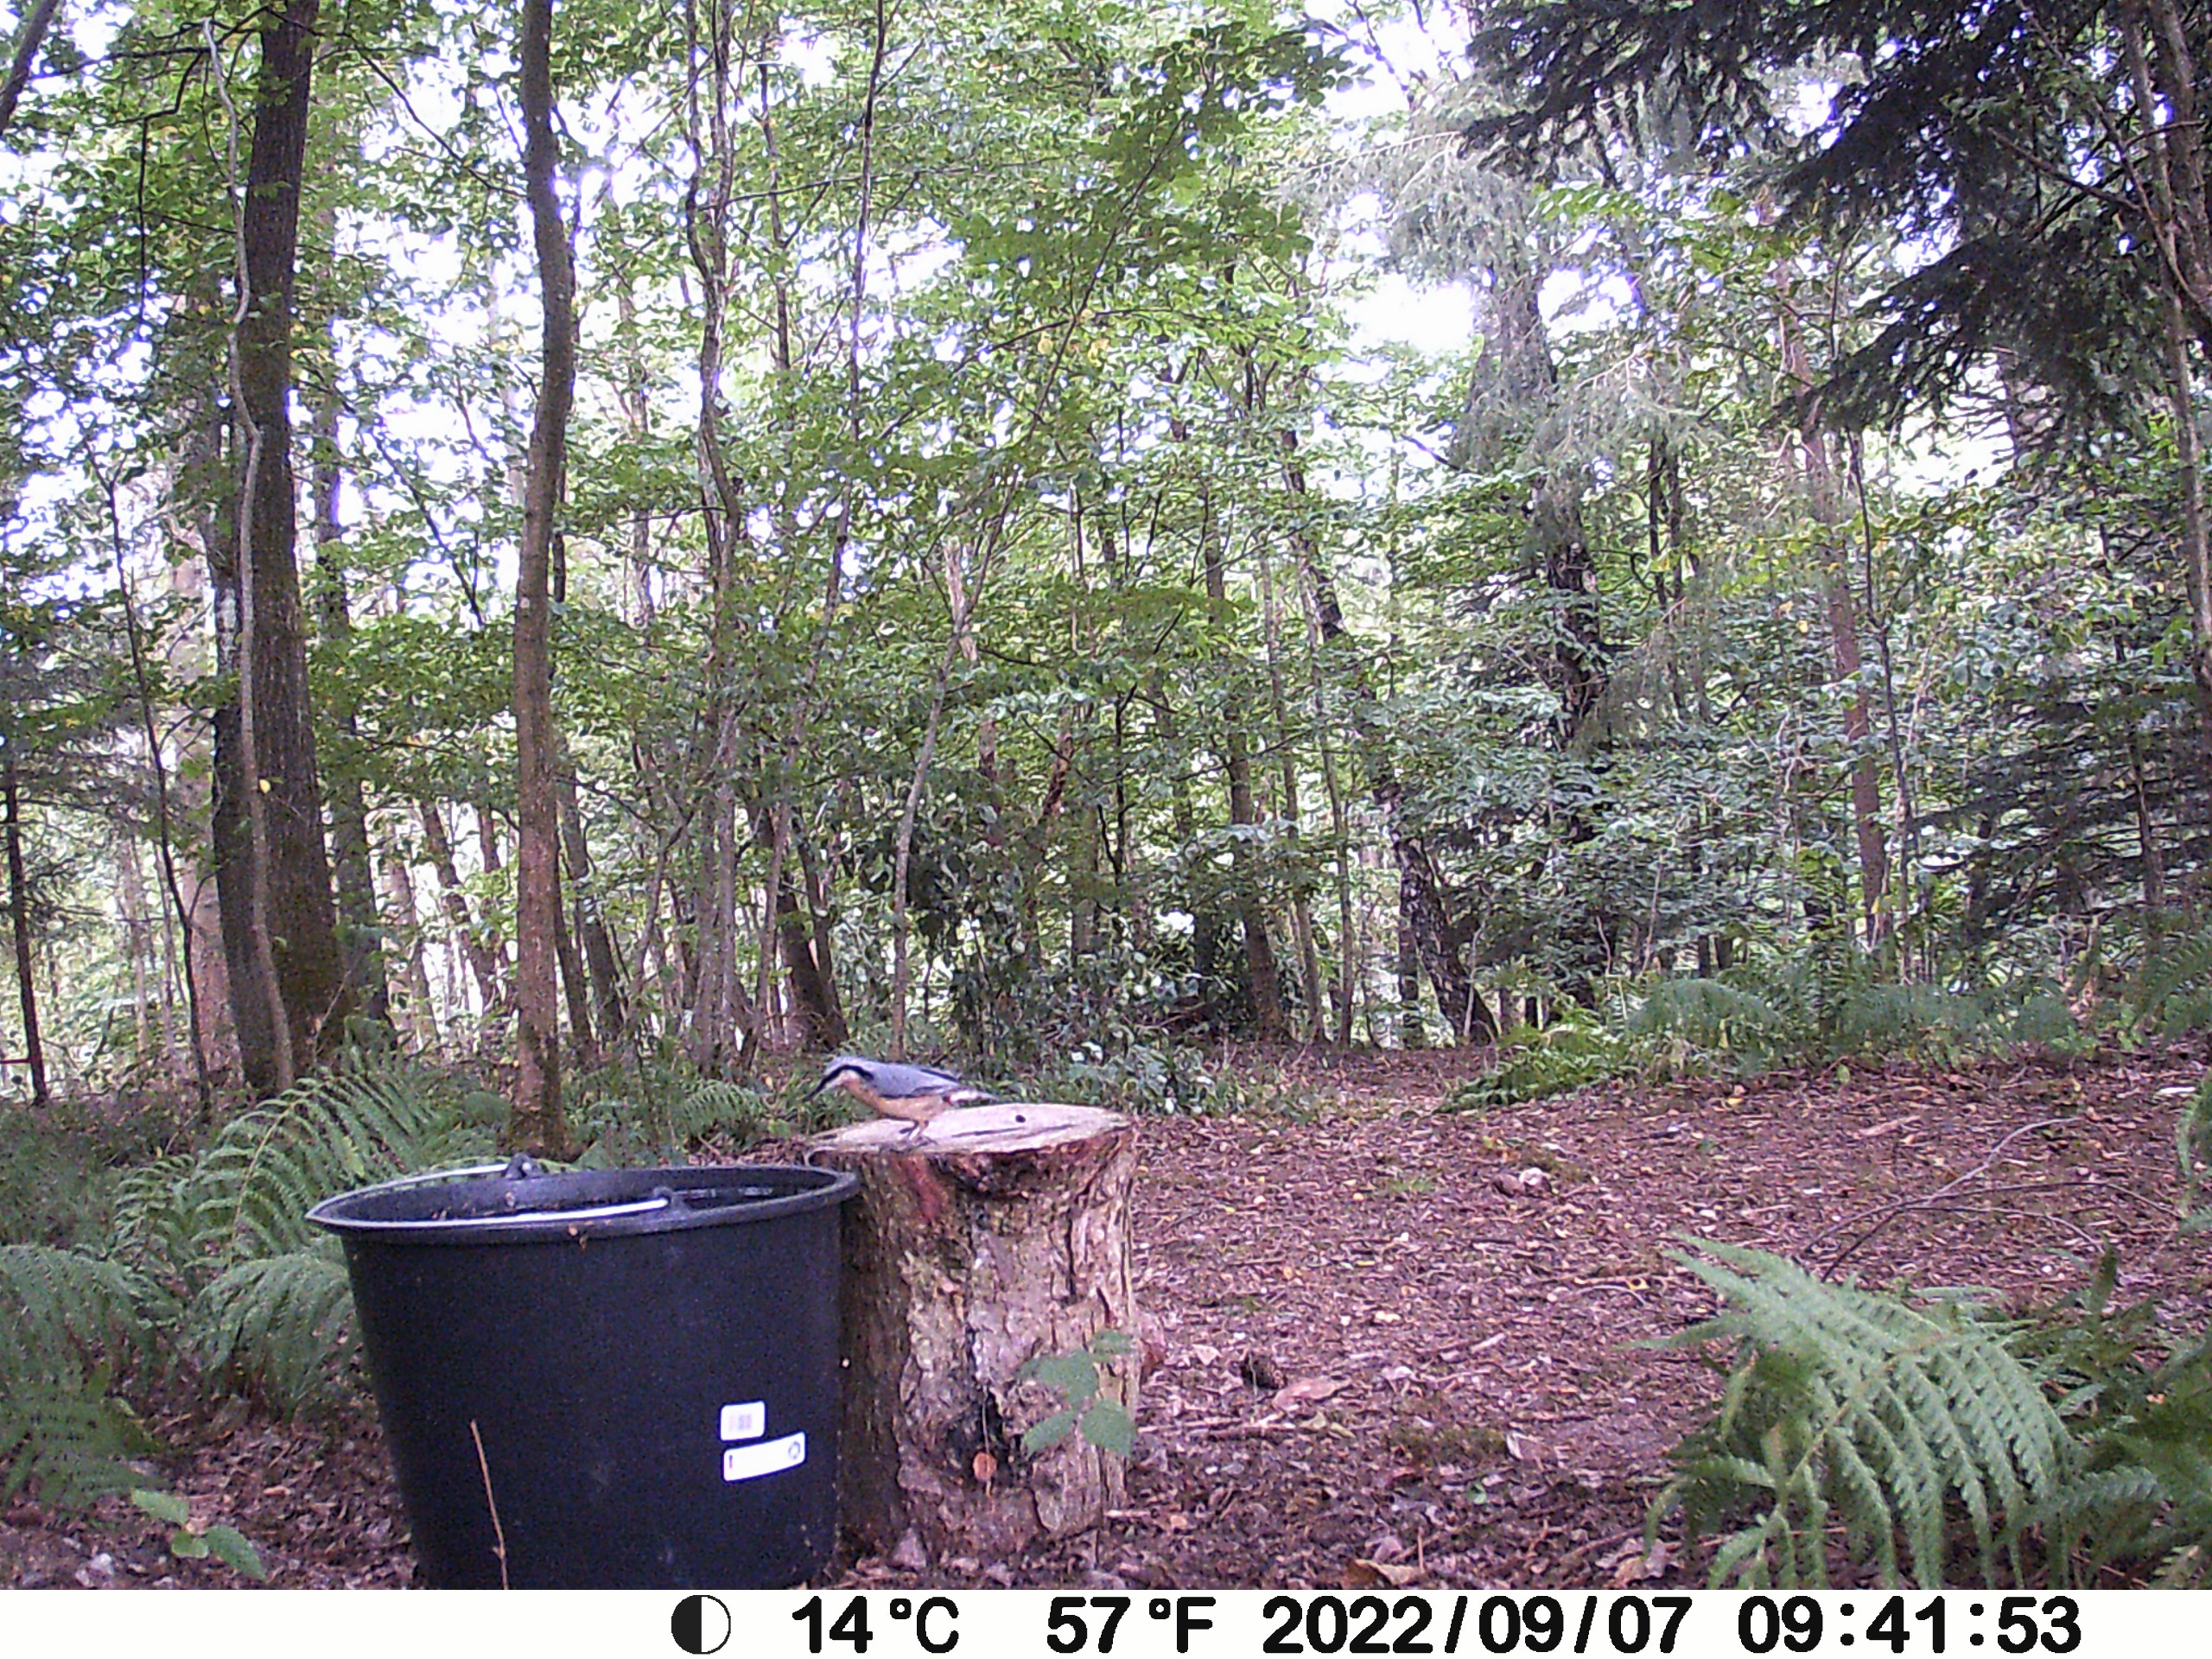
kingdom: Animalia
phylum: Chordata
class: Aves
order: Passeriformes
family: Sittidae
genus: Sitta
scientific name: Sitta europaea
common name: Spætmejse
